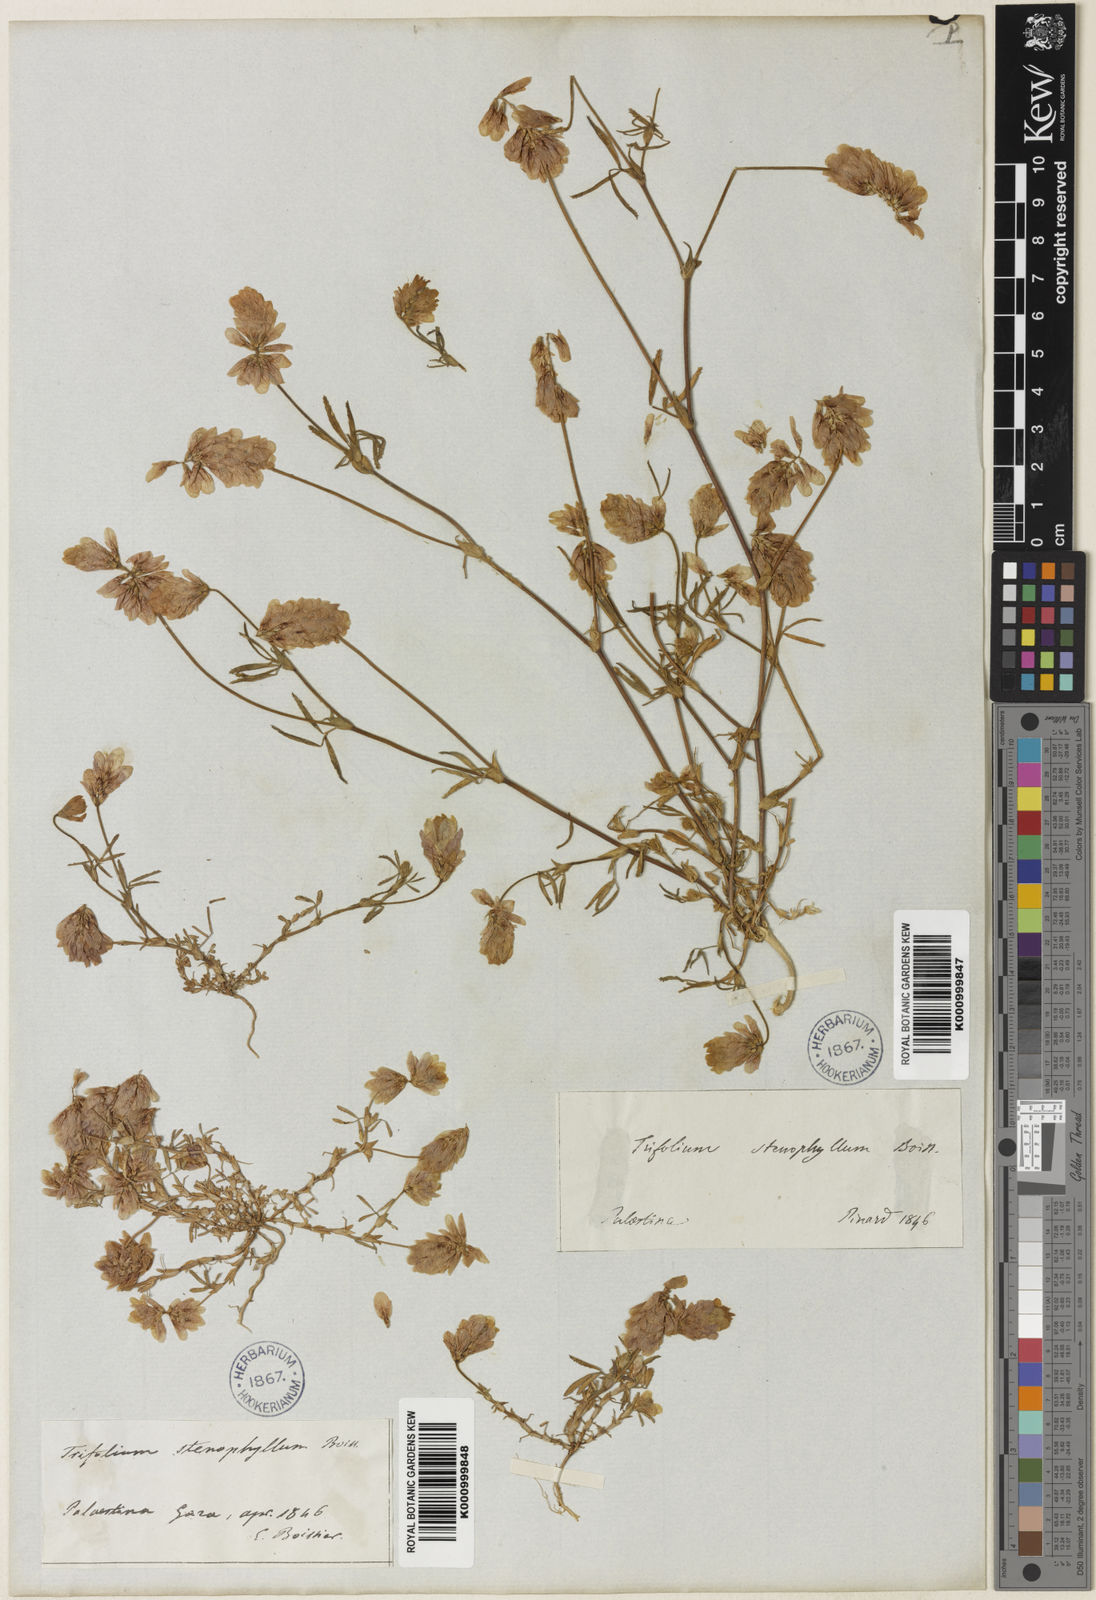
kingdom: Plantae
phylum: Tracheophyta
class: Magnoliopsida
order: Fabales
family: Fabaceae
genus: Trifolium
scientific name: Trifolium philistaeum
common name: Palestine clover
